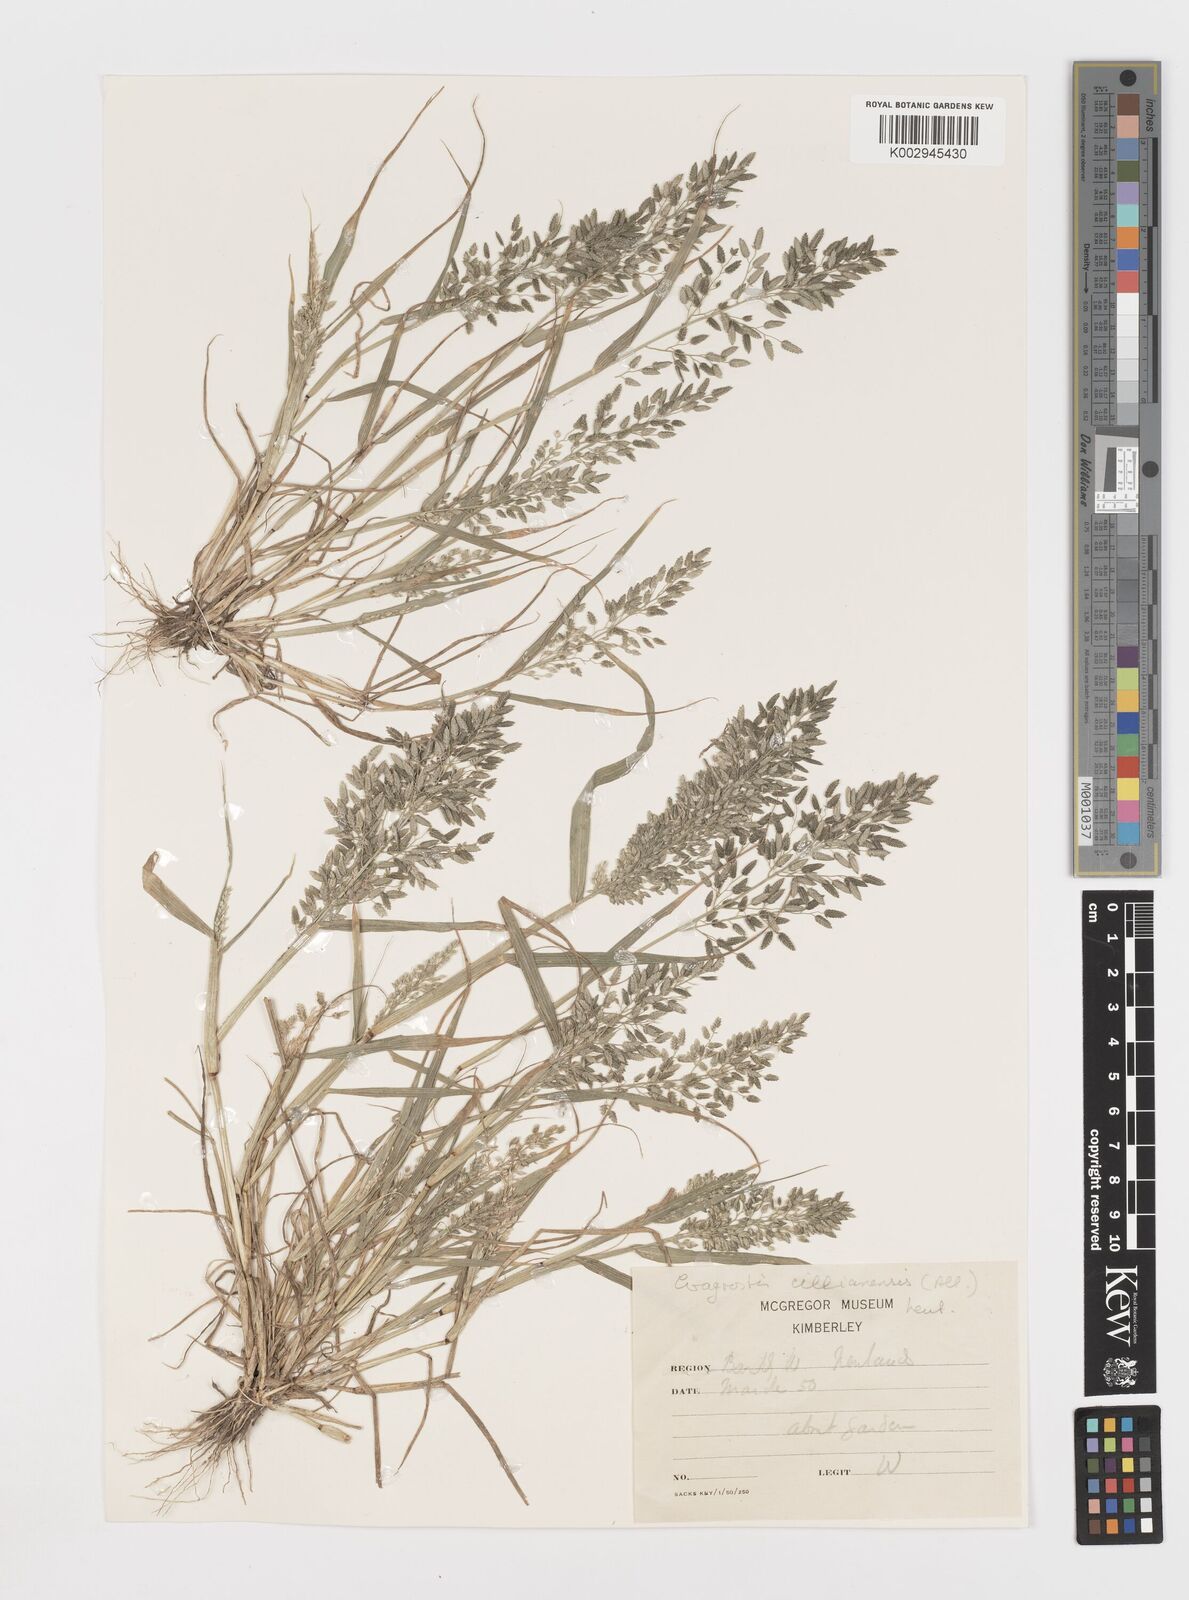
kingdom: Plantae
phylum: Tracheophyta
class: Liliopsida
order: Poales
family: Poaceae
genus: Eragrostis
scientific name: Eragrostis cilianensis
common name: Stinkgrass
